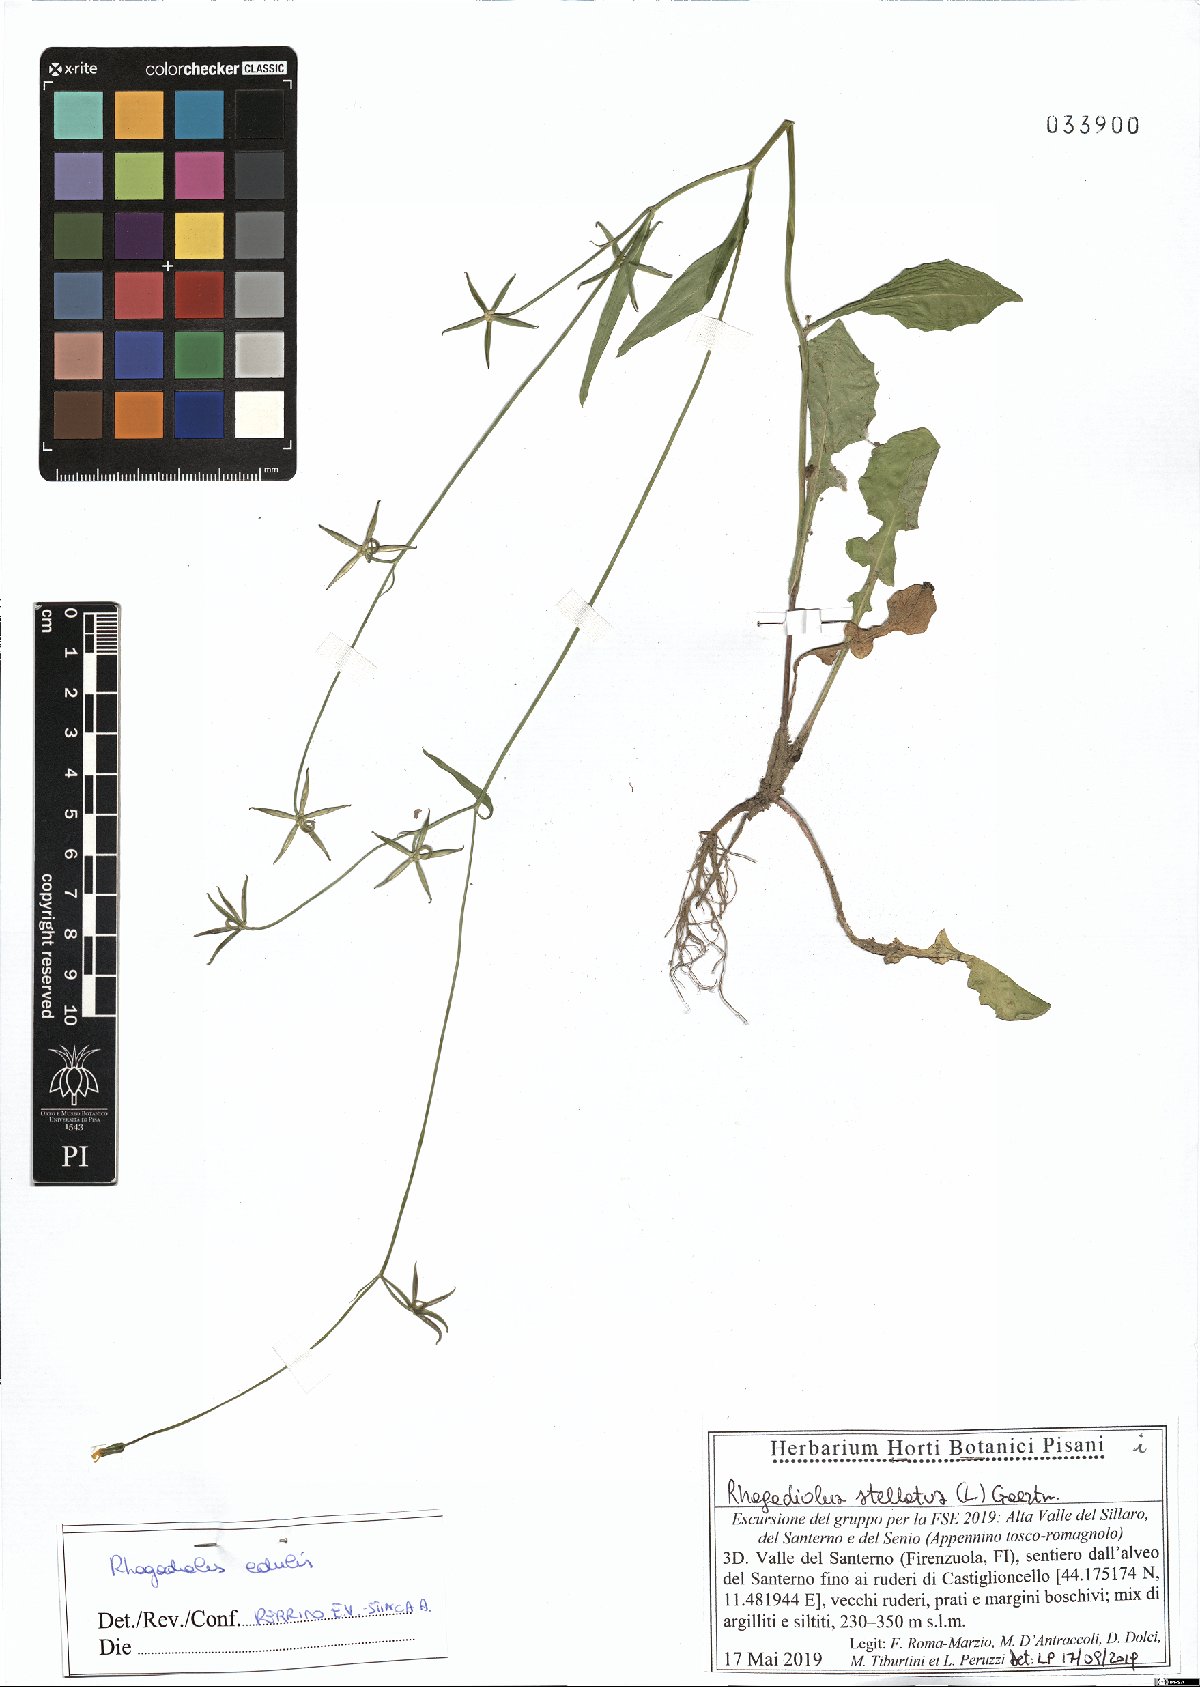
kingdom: Plantae
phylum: Tracheophyta
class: Magnoliopsida
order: Asterales
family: Asteraceae
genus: Rhagadiolus
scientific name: Rhagadiolus edulis
